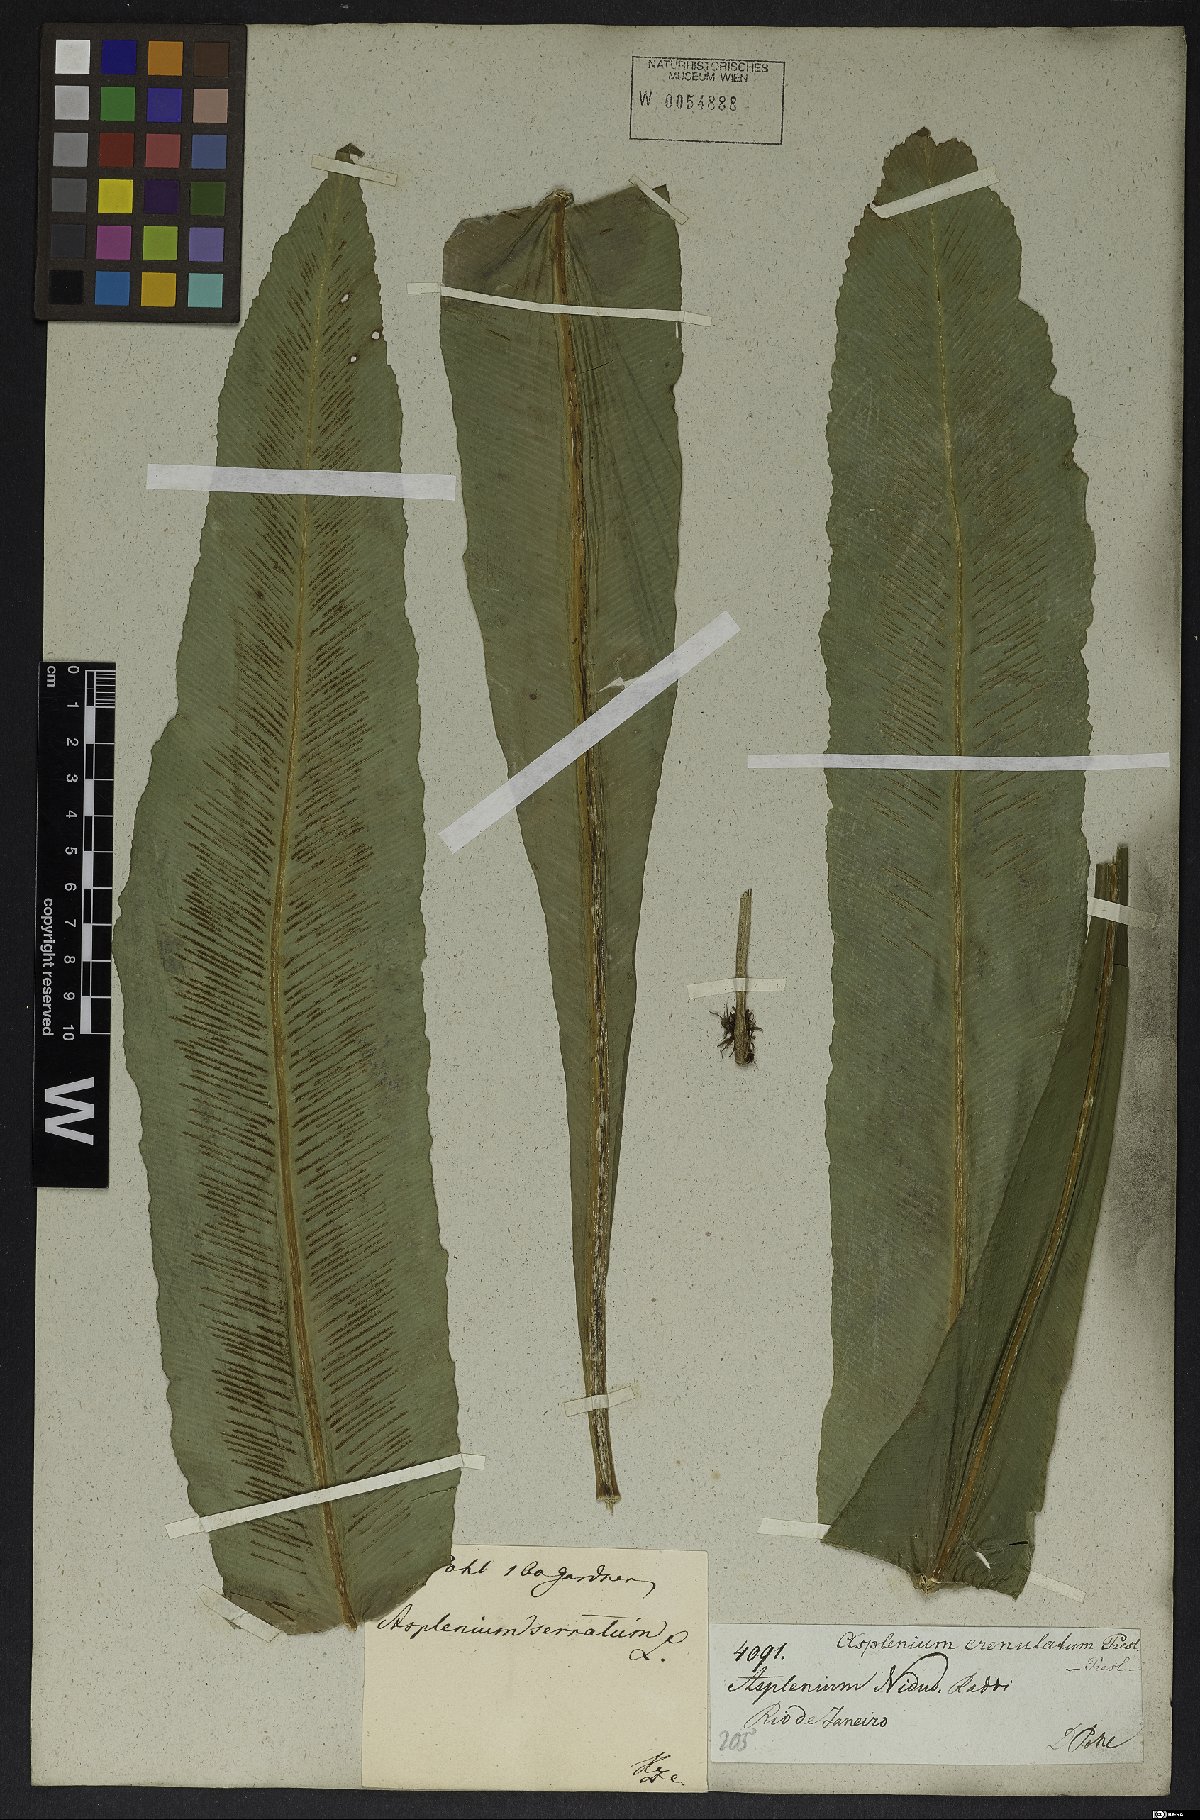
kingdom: Plantae
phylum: Tracheophyta
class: Polypodiopsida
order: Polypodiales
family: Aspleniaceae
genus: Asplenium
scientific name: Asplenium serratum
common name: Wild birdnest fern
